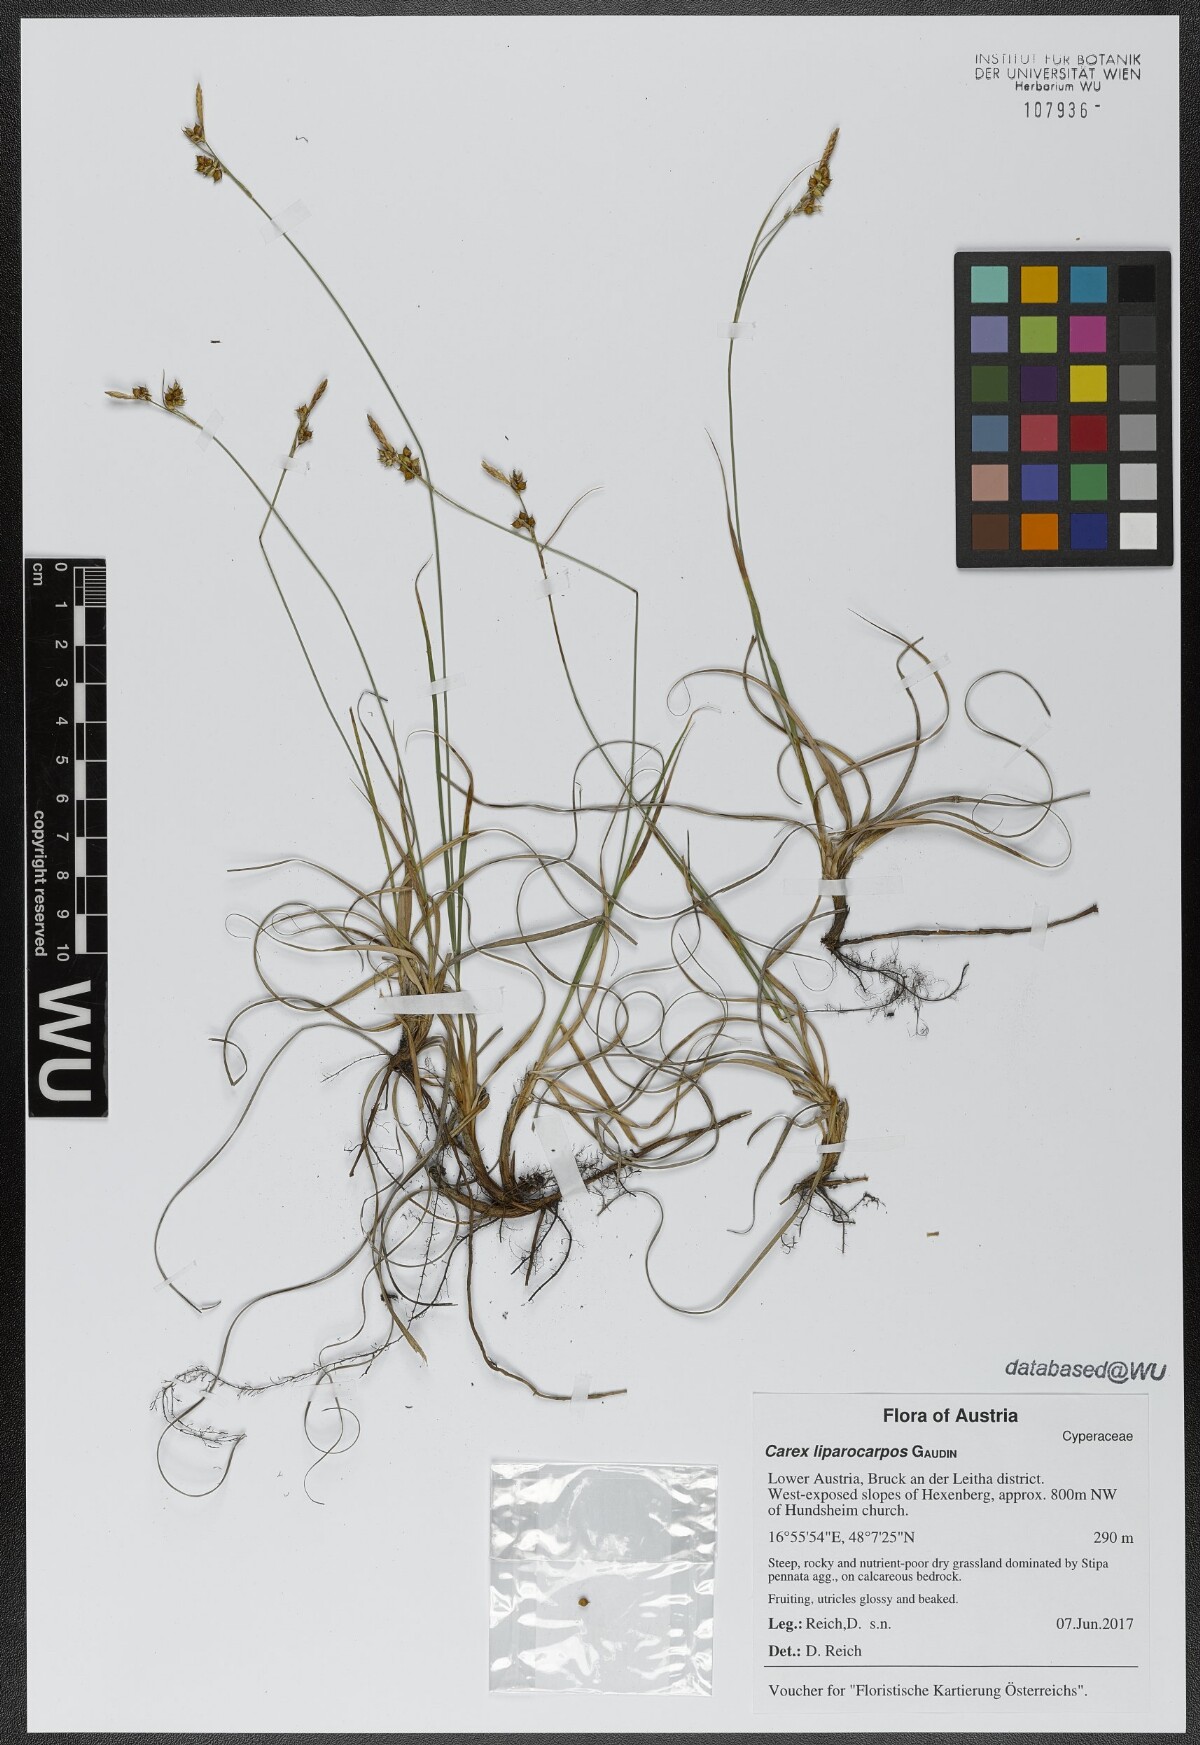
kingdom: Plantae
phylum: Tracheophyta
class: Liliopsida
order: Poales
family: Cyperaceae
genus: Carex
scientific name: Carex liparocarpos
